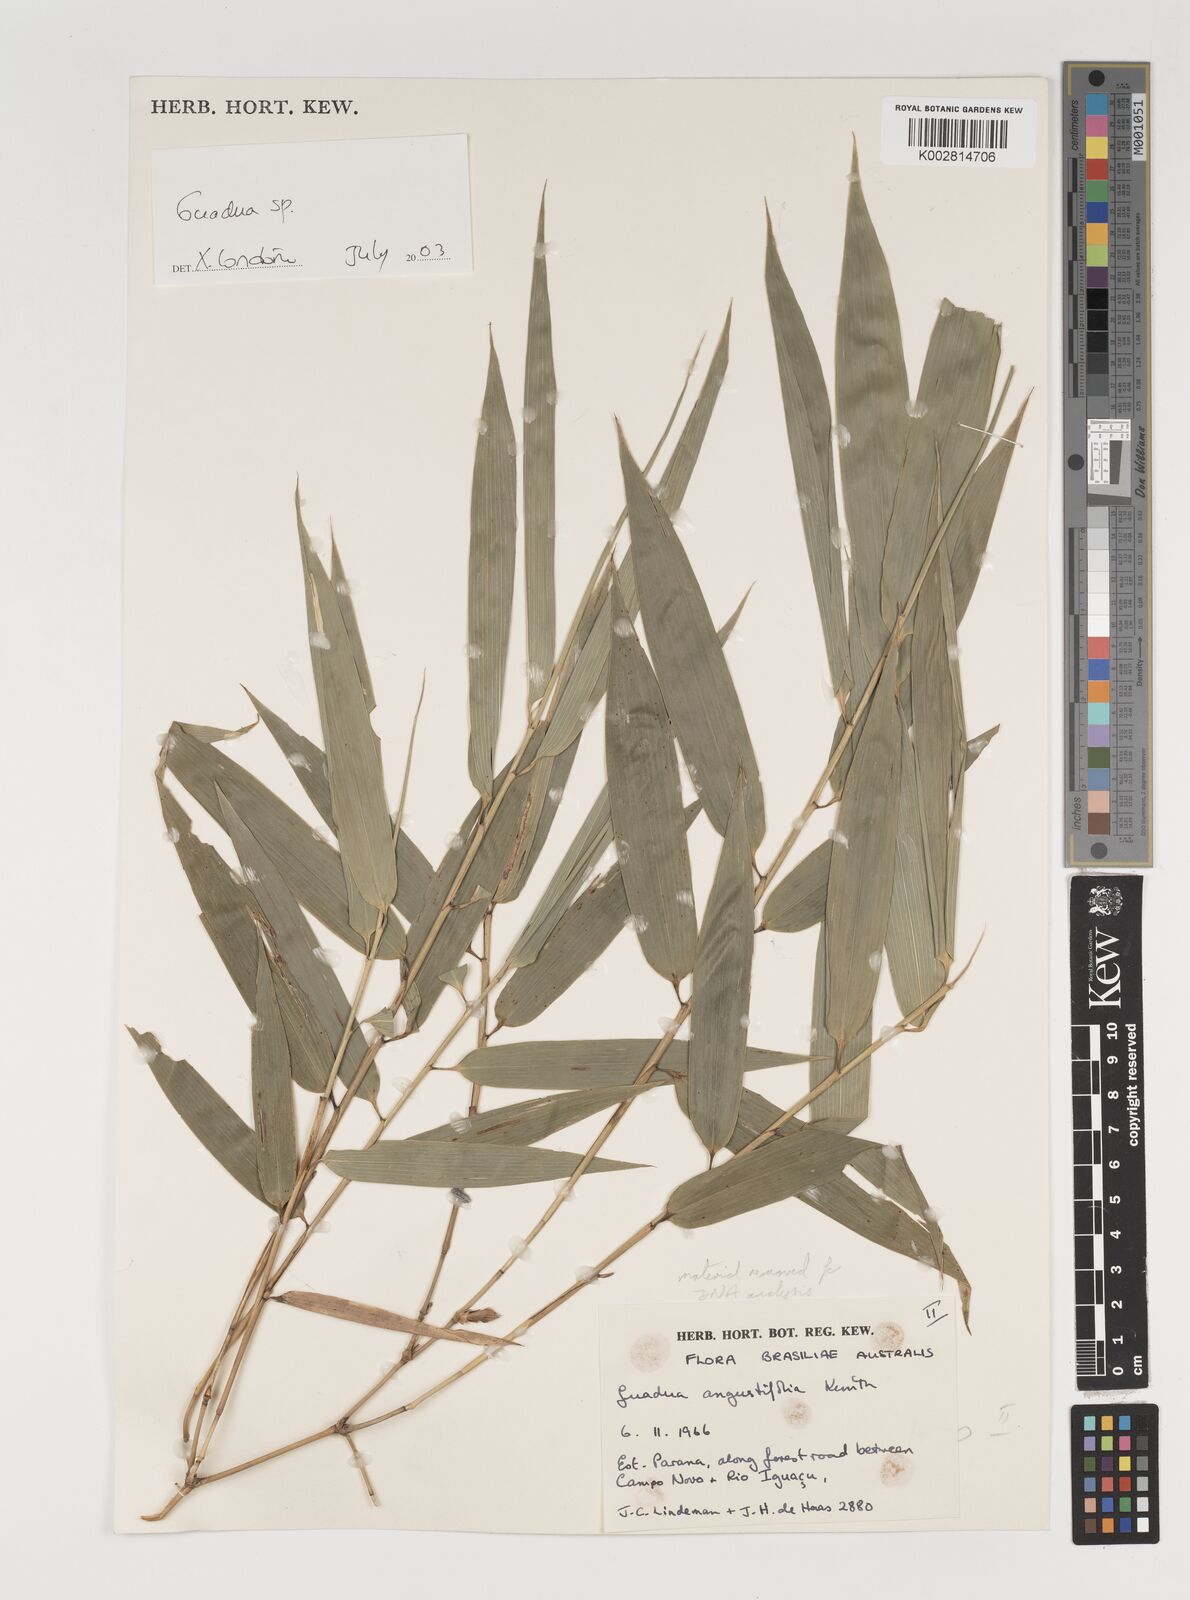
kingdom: Plantae
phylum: Tracheophyta
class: Liliopsida
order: Poales
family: Poaceae
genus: Guadua
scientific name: Guadua
